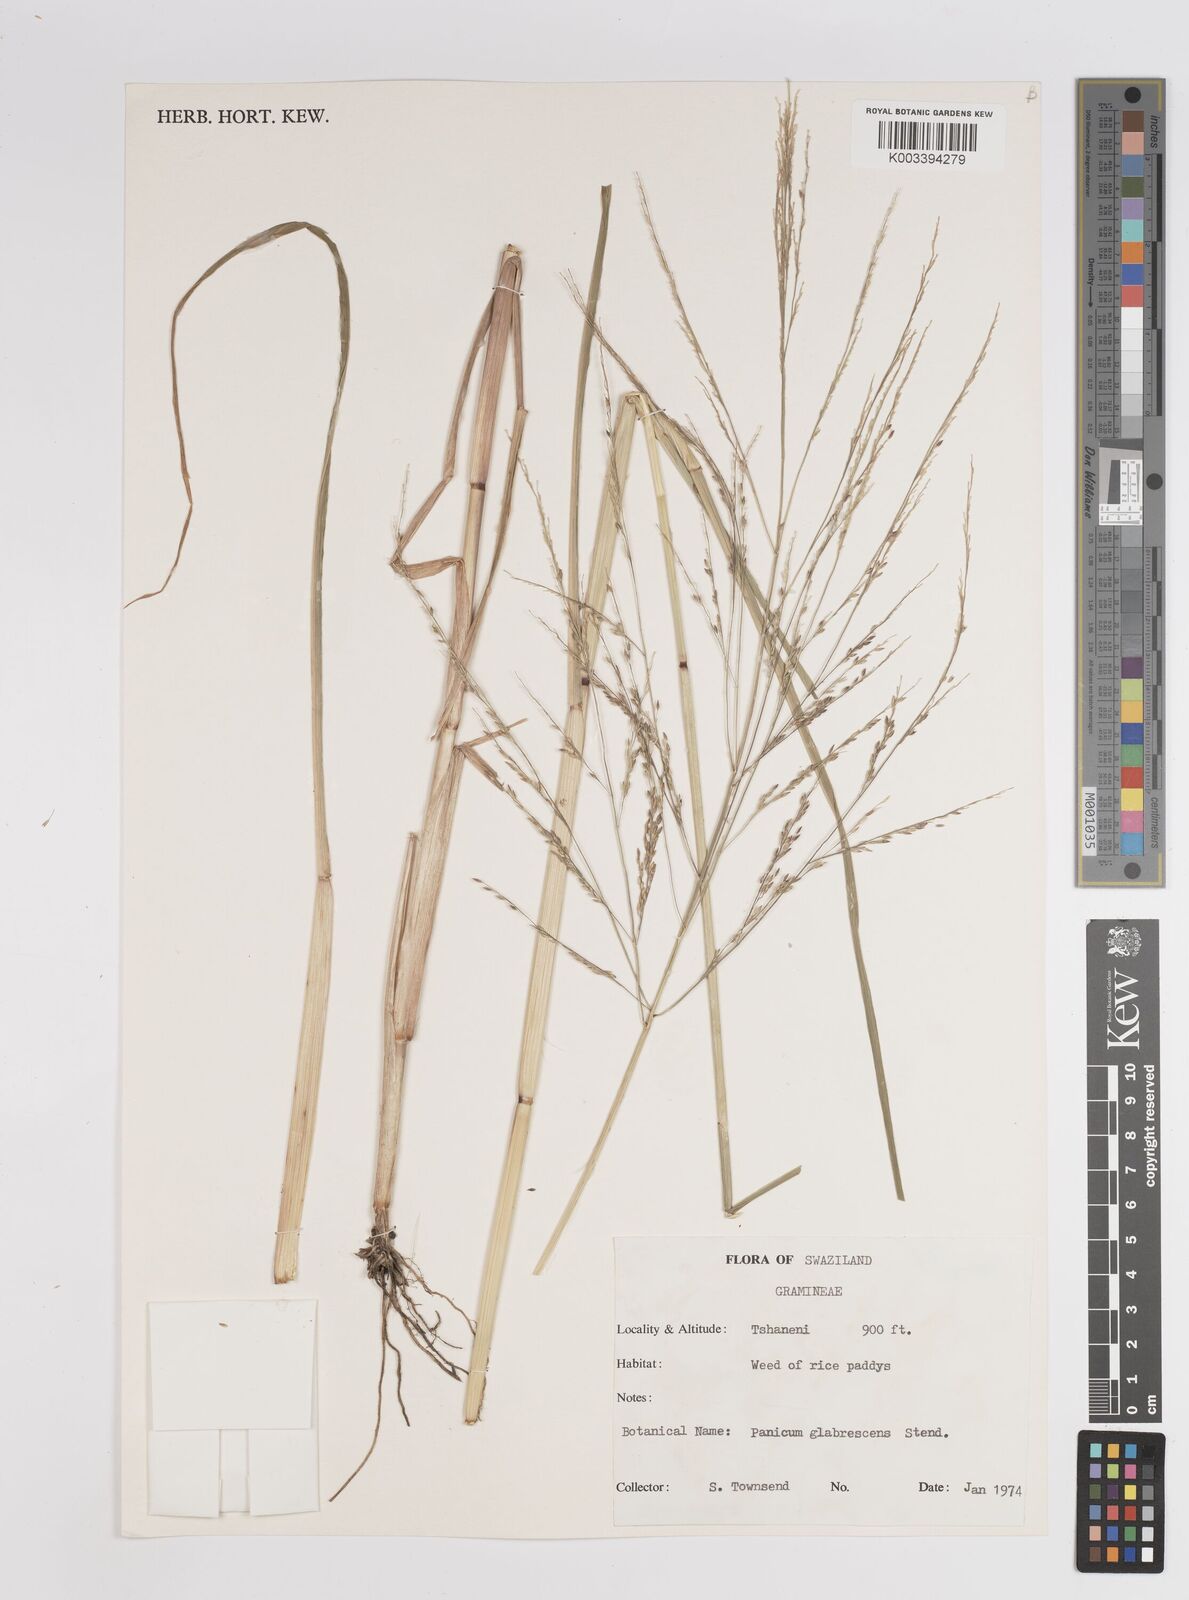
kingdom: Plantae
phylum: Tracheophyta
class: Liliopsida
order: Poales
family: Poaceae
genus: Panicum
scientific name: Panicum subalbidum
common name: Elbow buffalo grass
